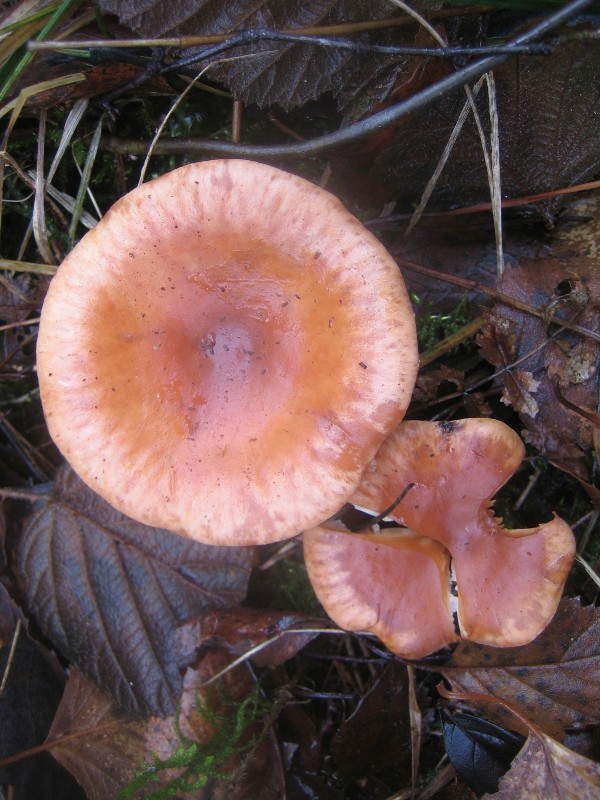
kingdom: Fungi
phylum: Basidiomycota
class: Agaricomycetes
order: Agaricales
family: Tricholomataceae
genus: Paralepista
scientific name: Paralepista flaccida
